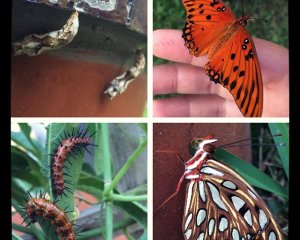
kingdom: Animalia
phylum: Arthropoda
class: Insecta
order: Lepidoptera
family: Nymphalidae
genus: Dione
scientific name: Dione vanillae
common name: Gulf Fritillary
